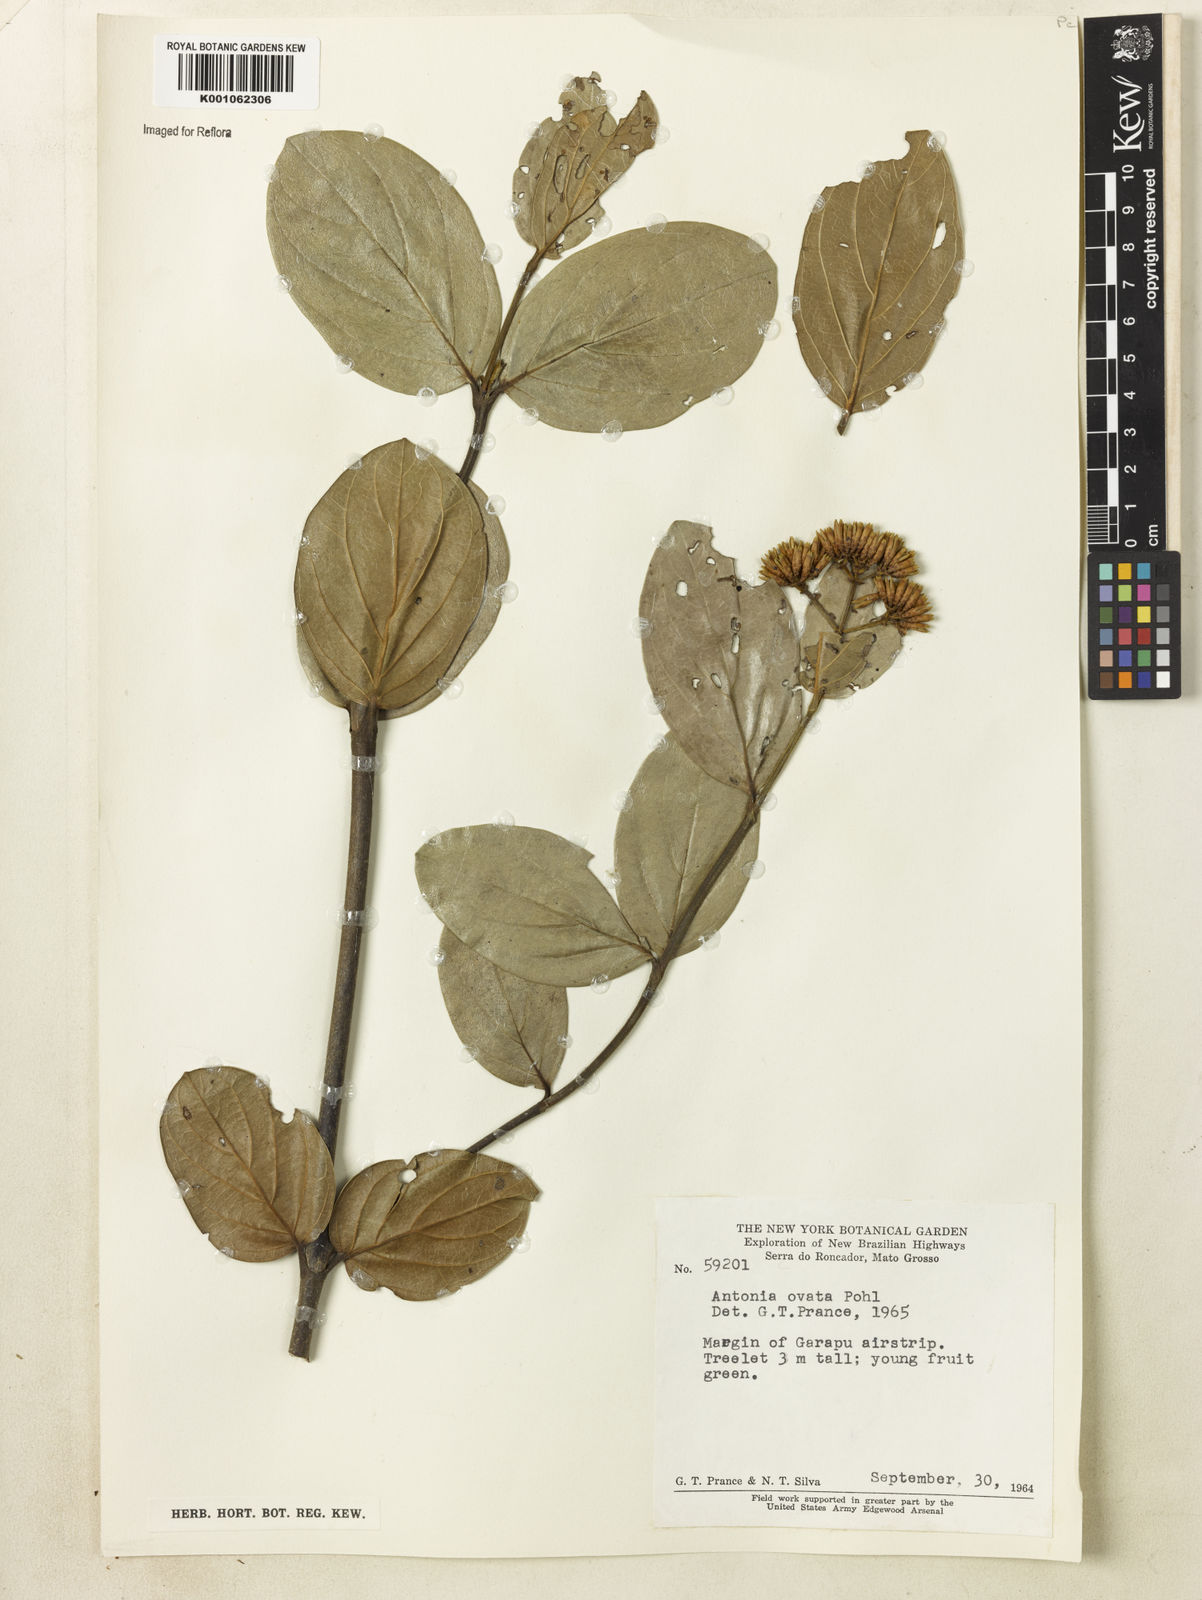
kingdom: Plantae
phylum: Tracheophyta
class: Magnoliopsida
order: Gentianales
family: Loganiaceae
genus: Antonia
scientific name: Antonia ovata
